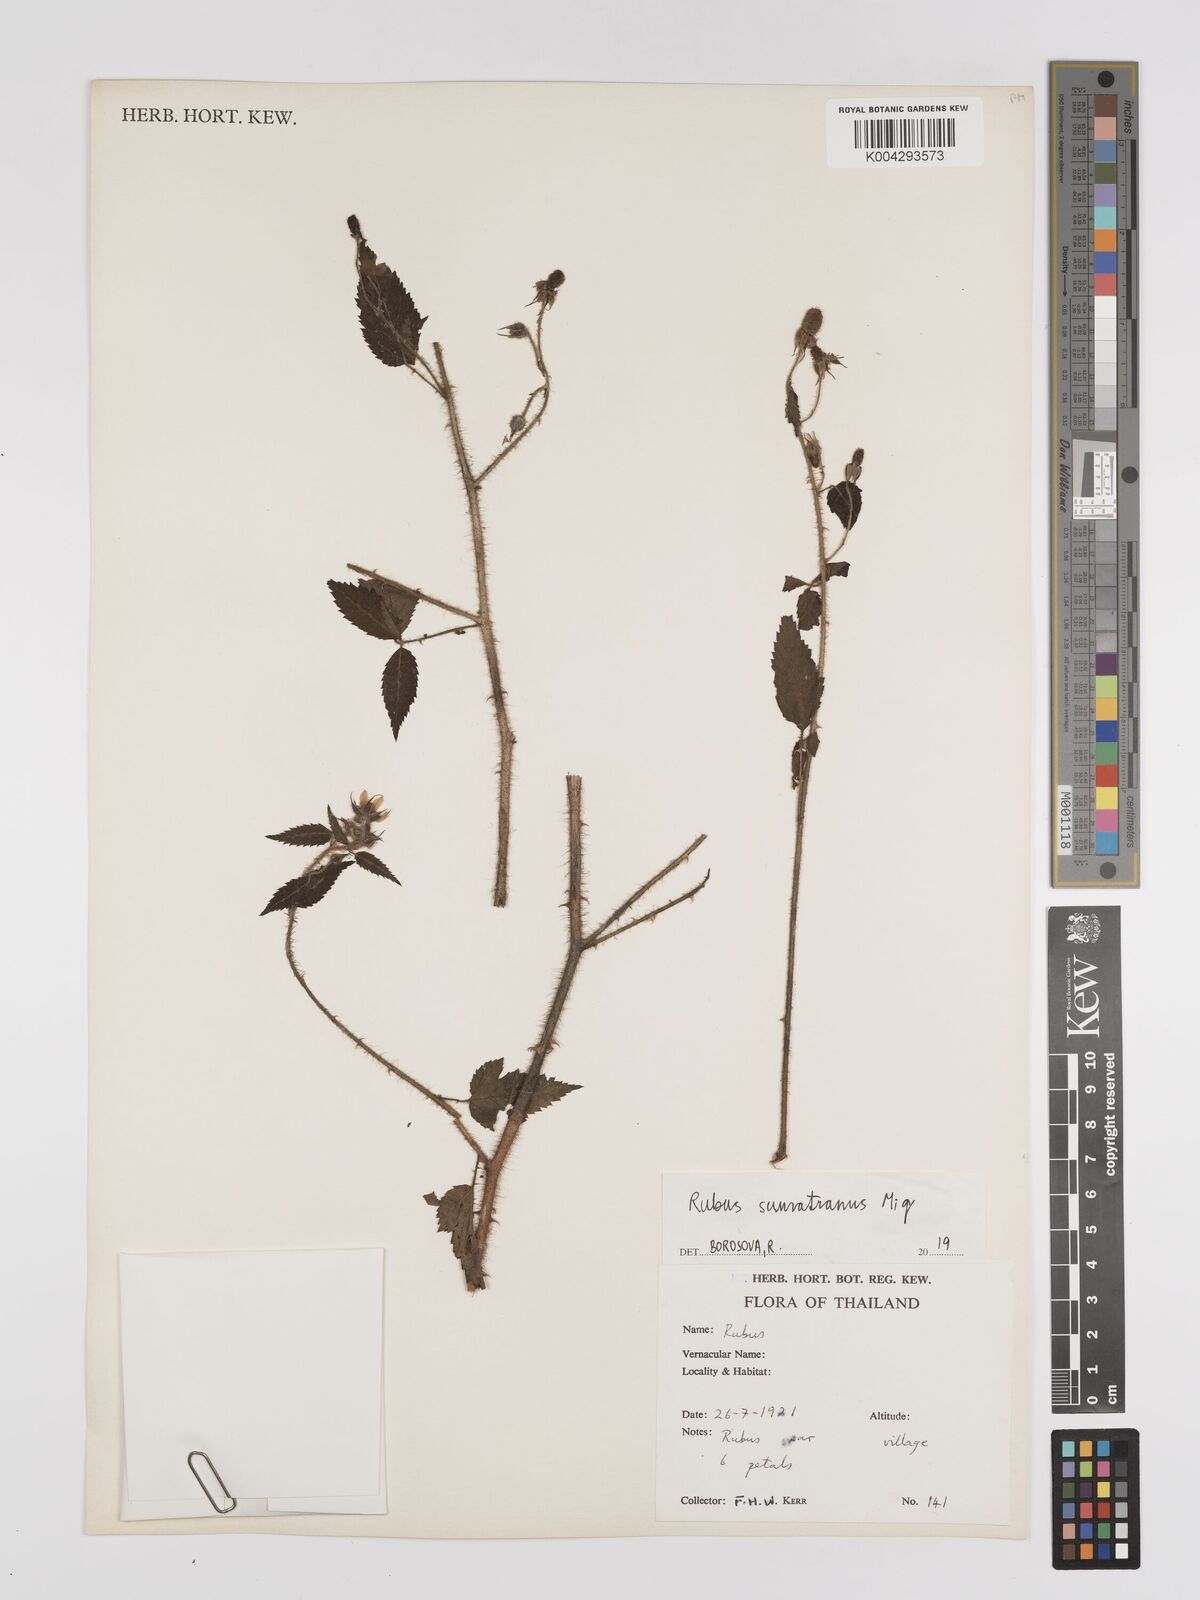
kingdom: Plantae
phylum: Tracheophyta
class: Magnoliopsida
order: Rosales
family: Rosaceae
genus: Rubus
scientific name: Rubus sumatranus
